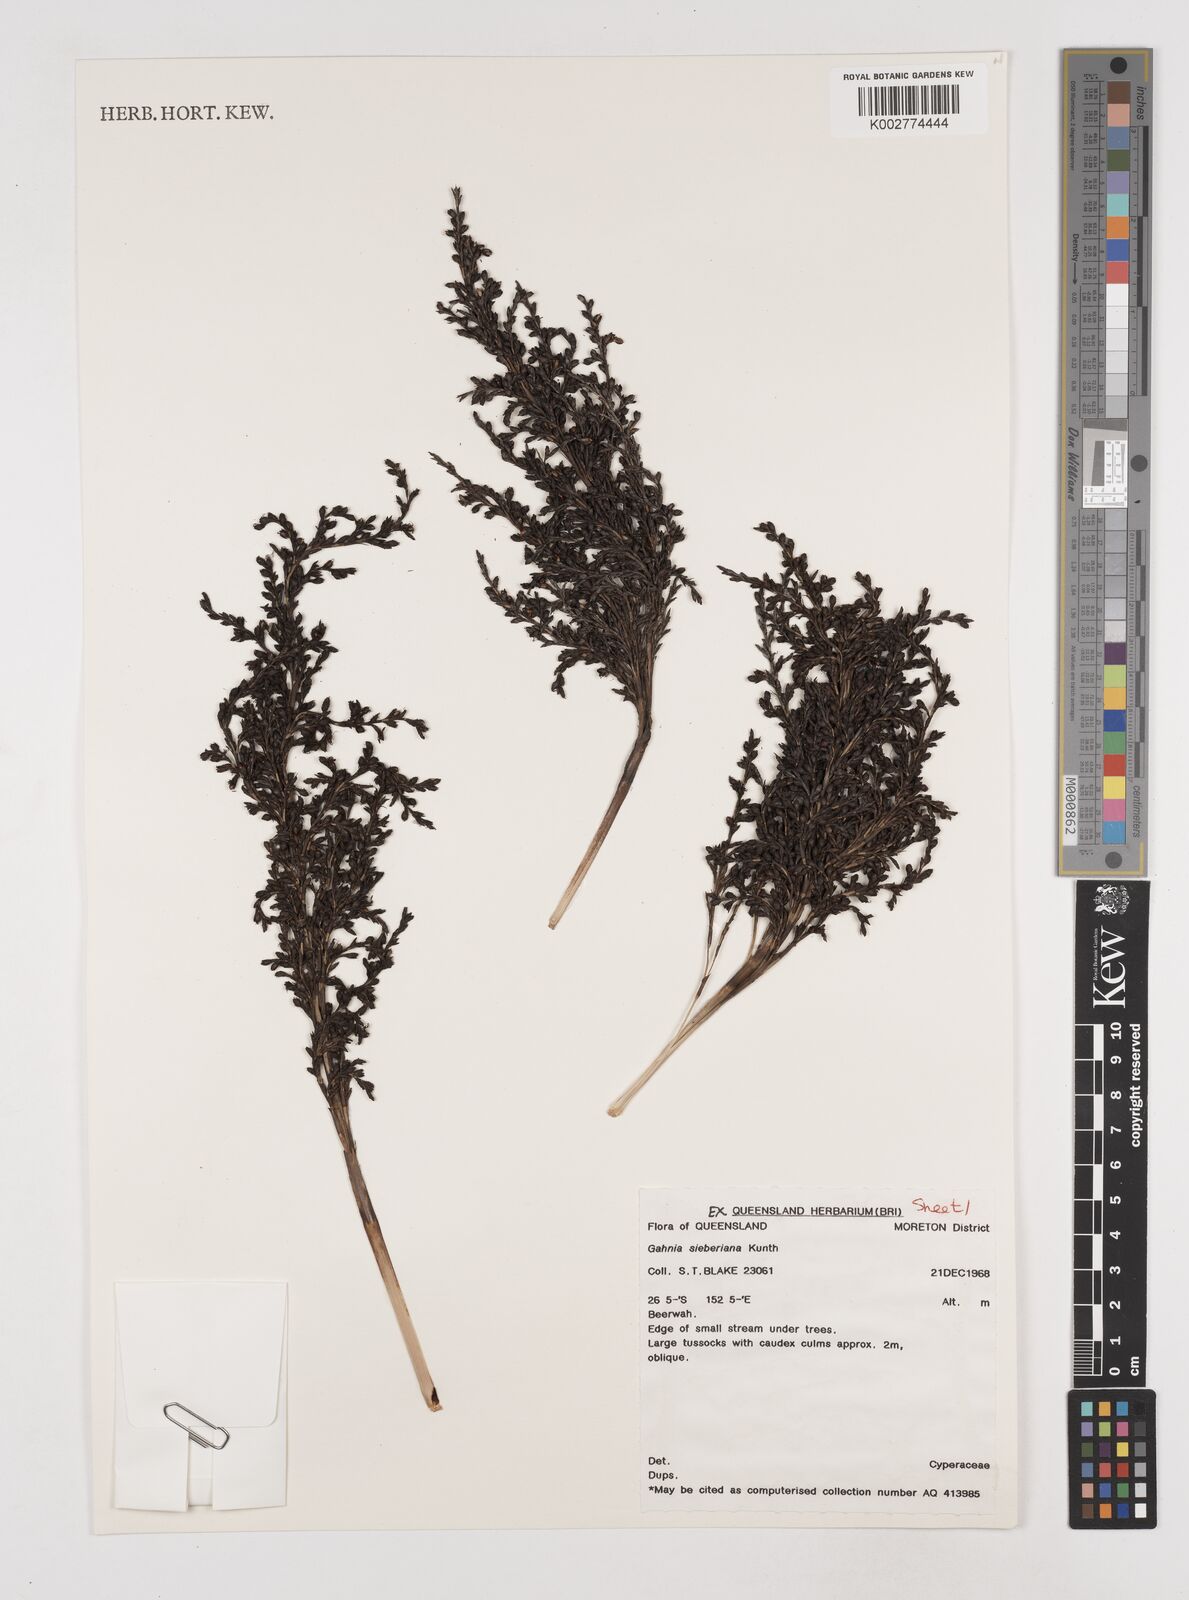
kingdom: Plantae
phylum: Tracheophyta
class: Liliopsida
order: Poales
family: Cyperaceae
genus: Gahnia
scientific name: Gahnia sieberiana
